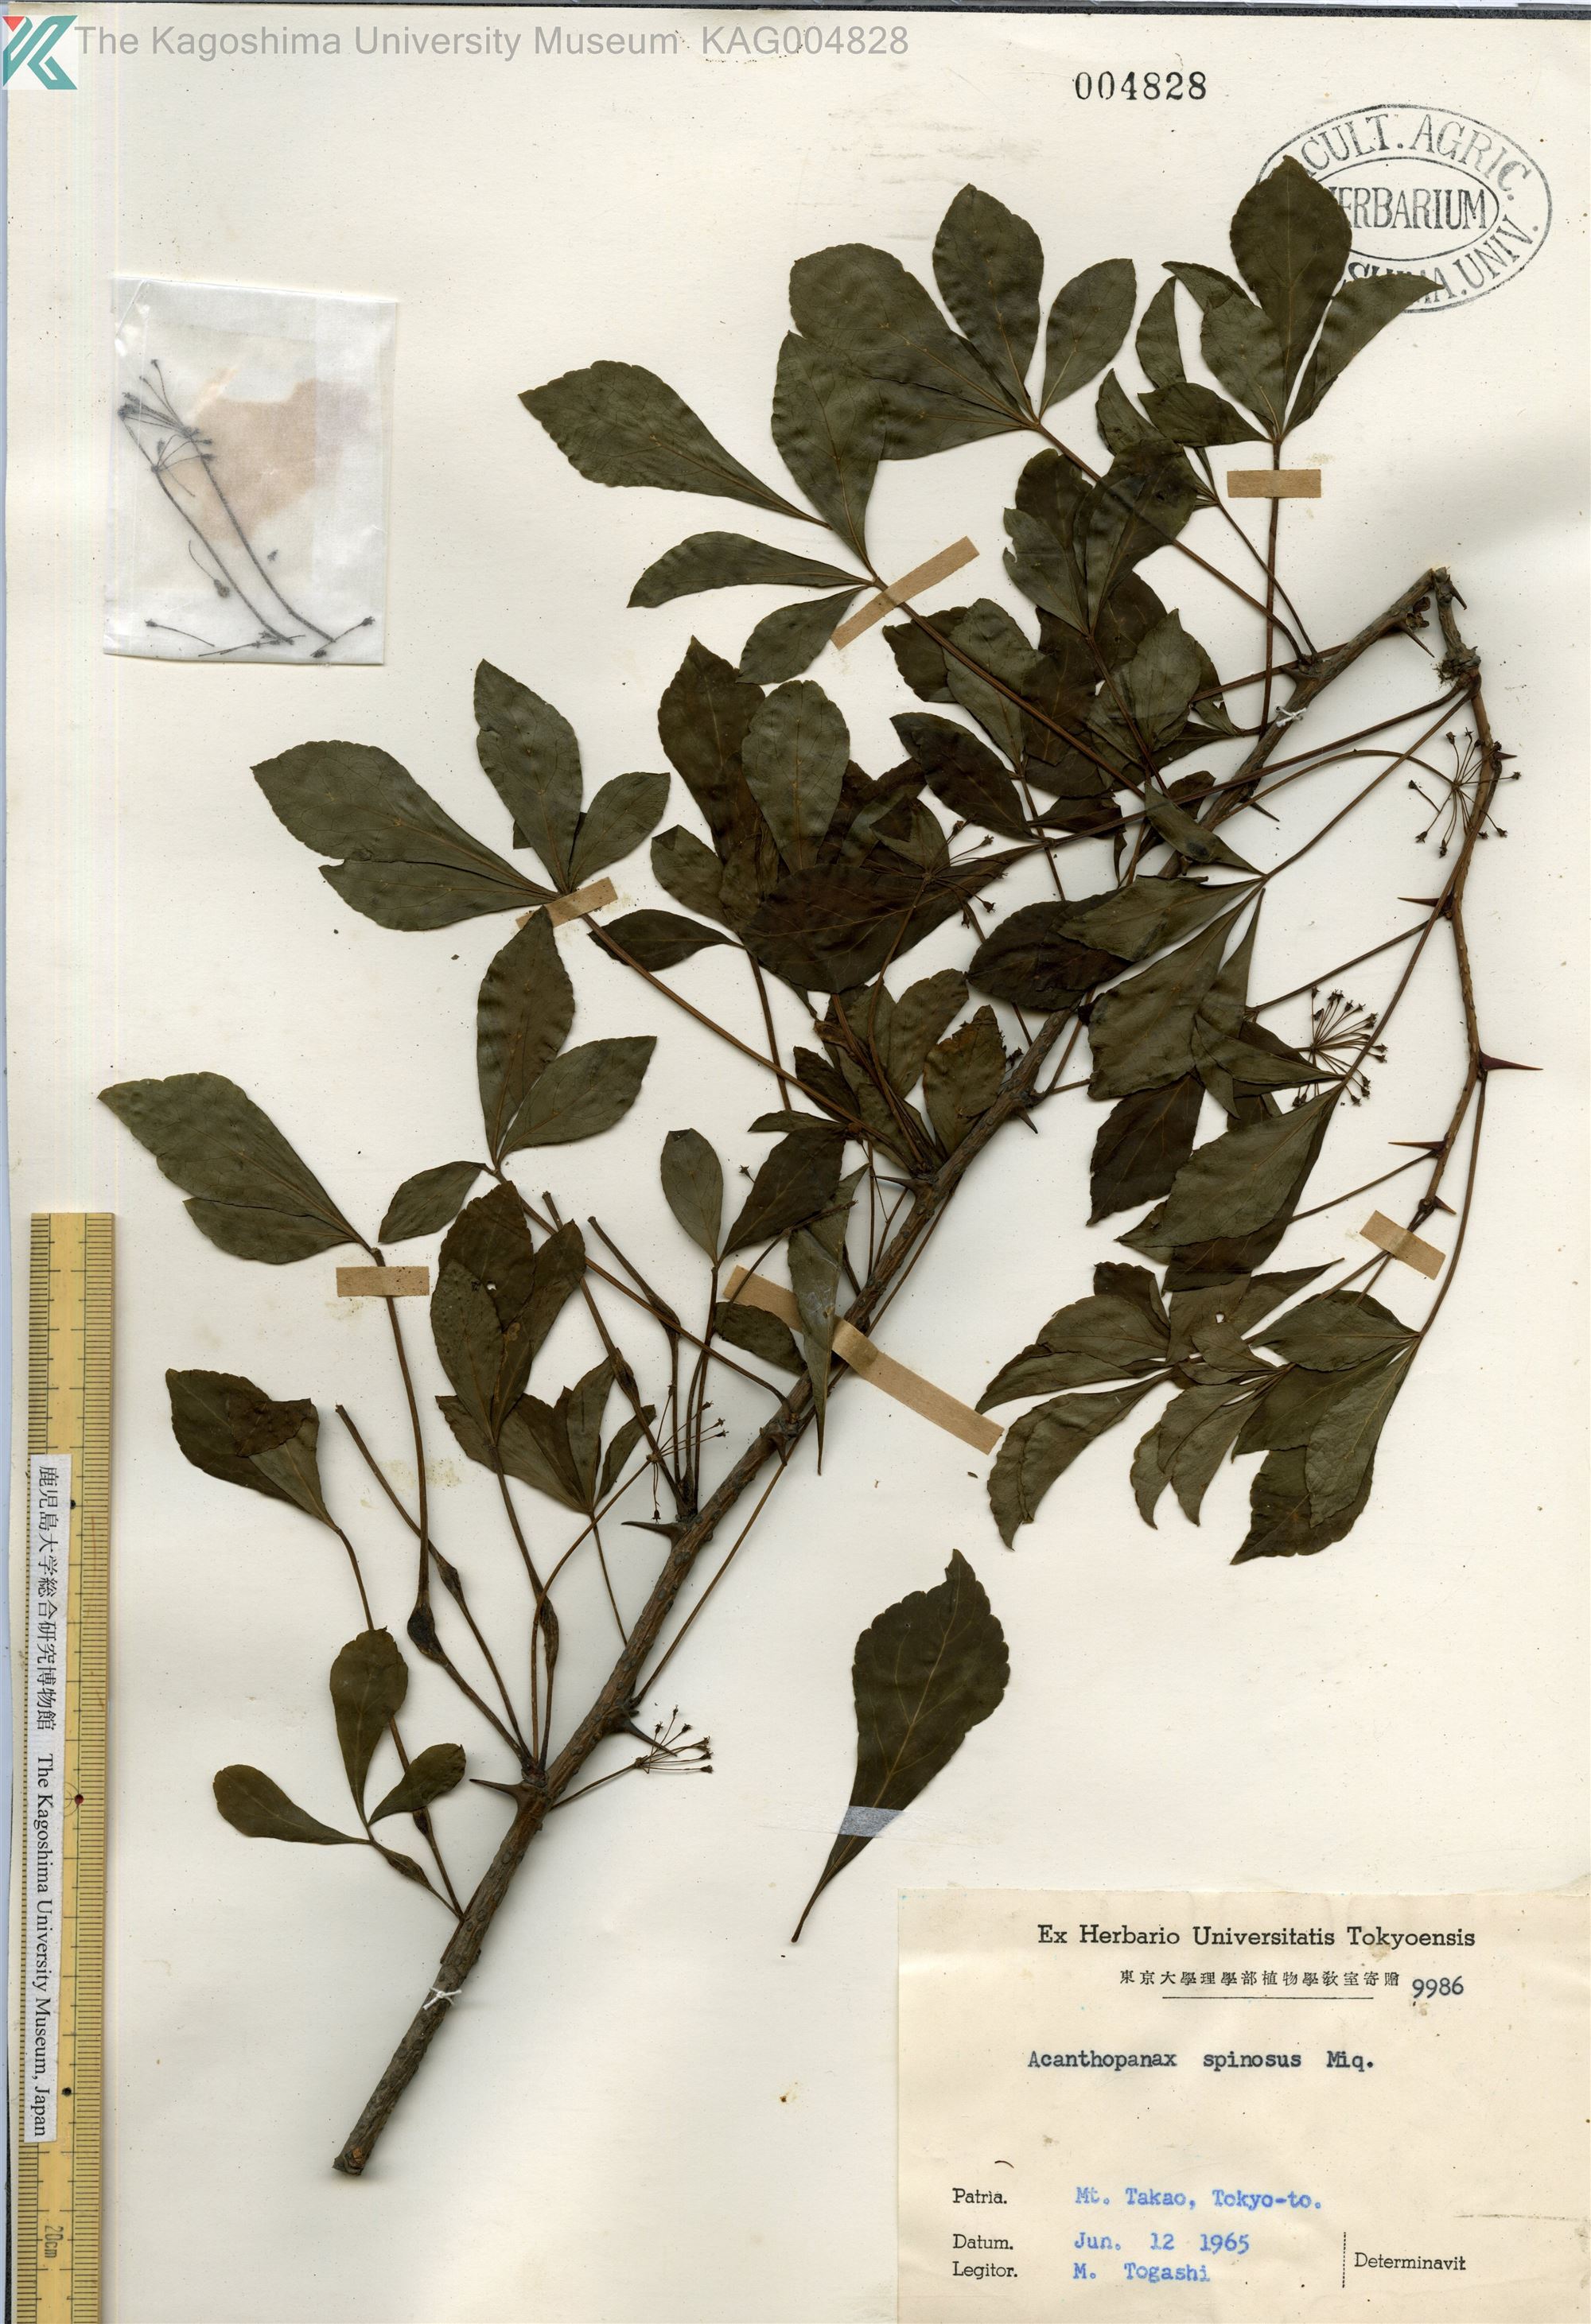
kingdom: Plantae
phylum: Tracheophyta
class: Magnoliopsida
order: Apiales
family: Araliaceae
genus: Eleutherococcus
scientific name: Eleutherococcus nodiflorus
